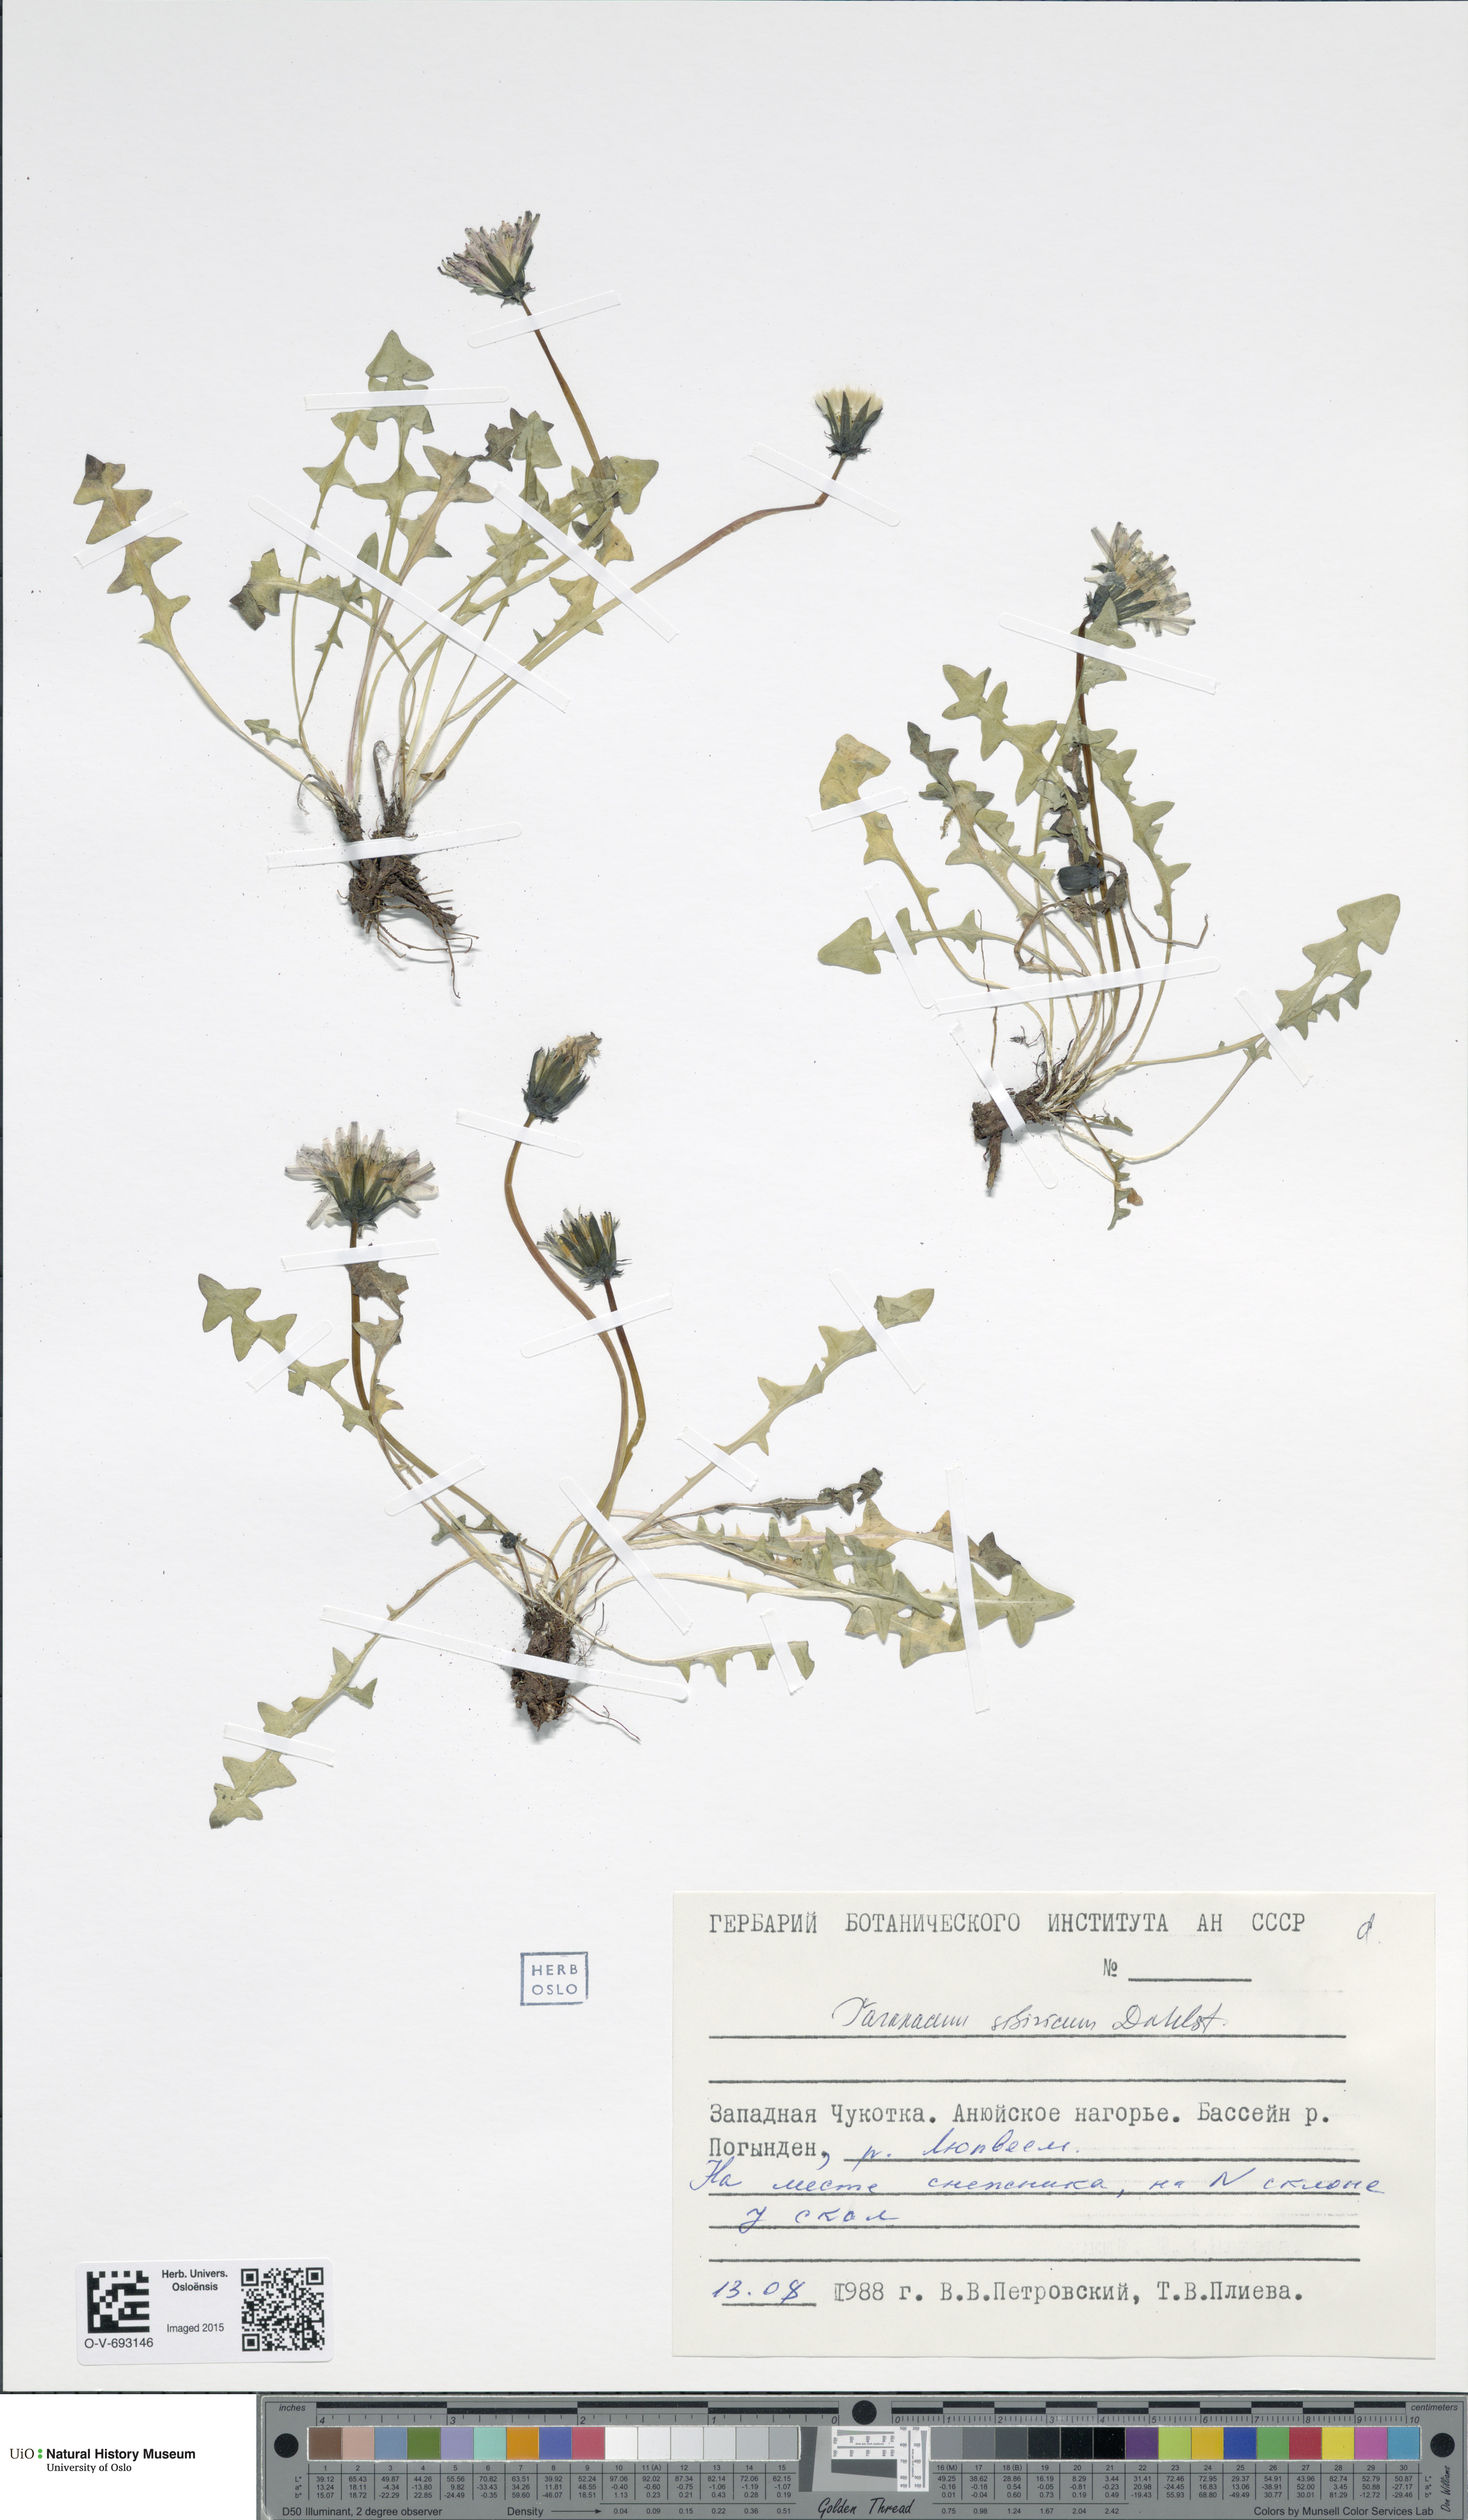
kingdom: Plantae
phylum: Tracheophyta
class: Magnoliopsida
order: Asterales
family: Asteraceae
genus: Taraxacum
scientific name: Taraxacum sibiricum
